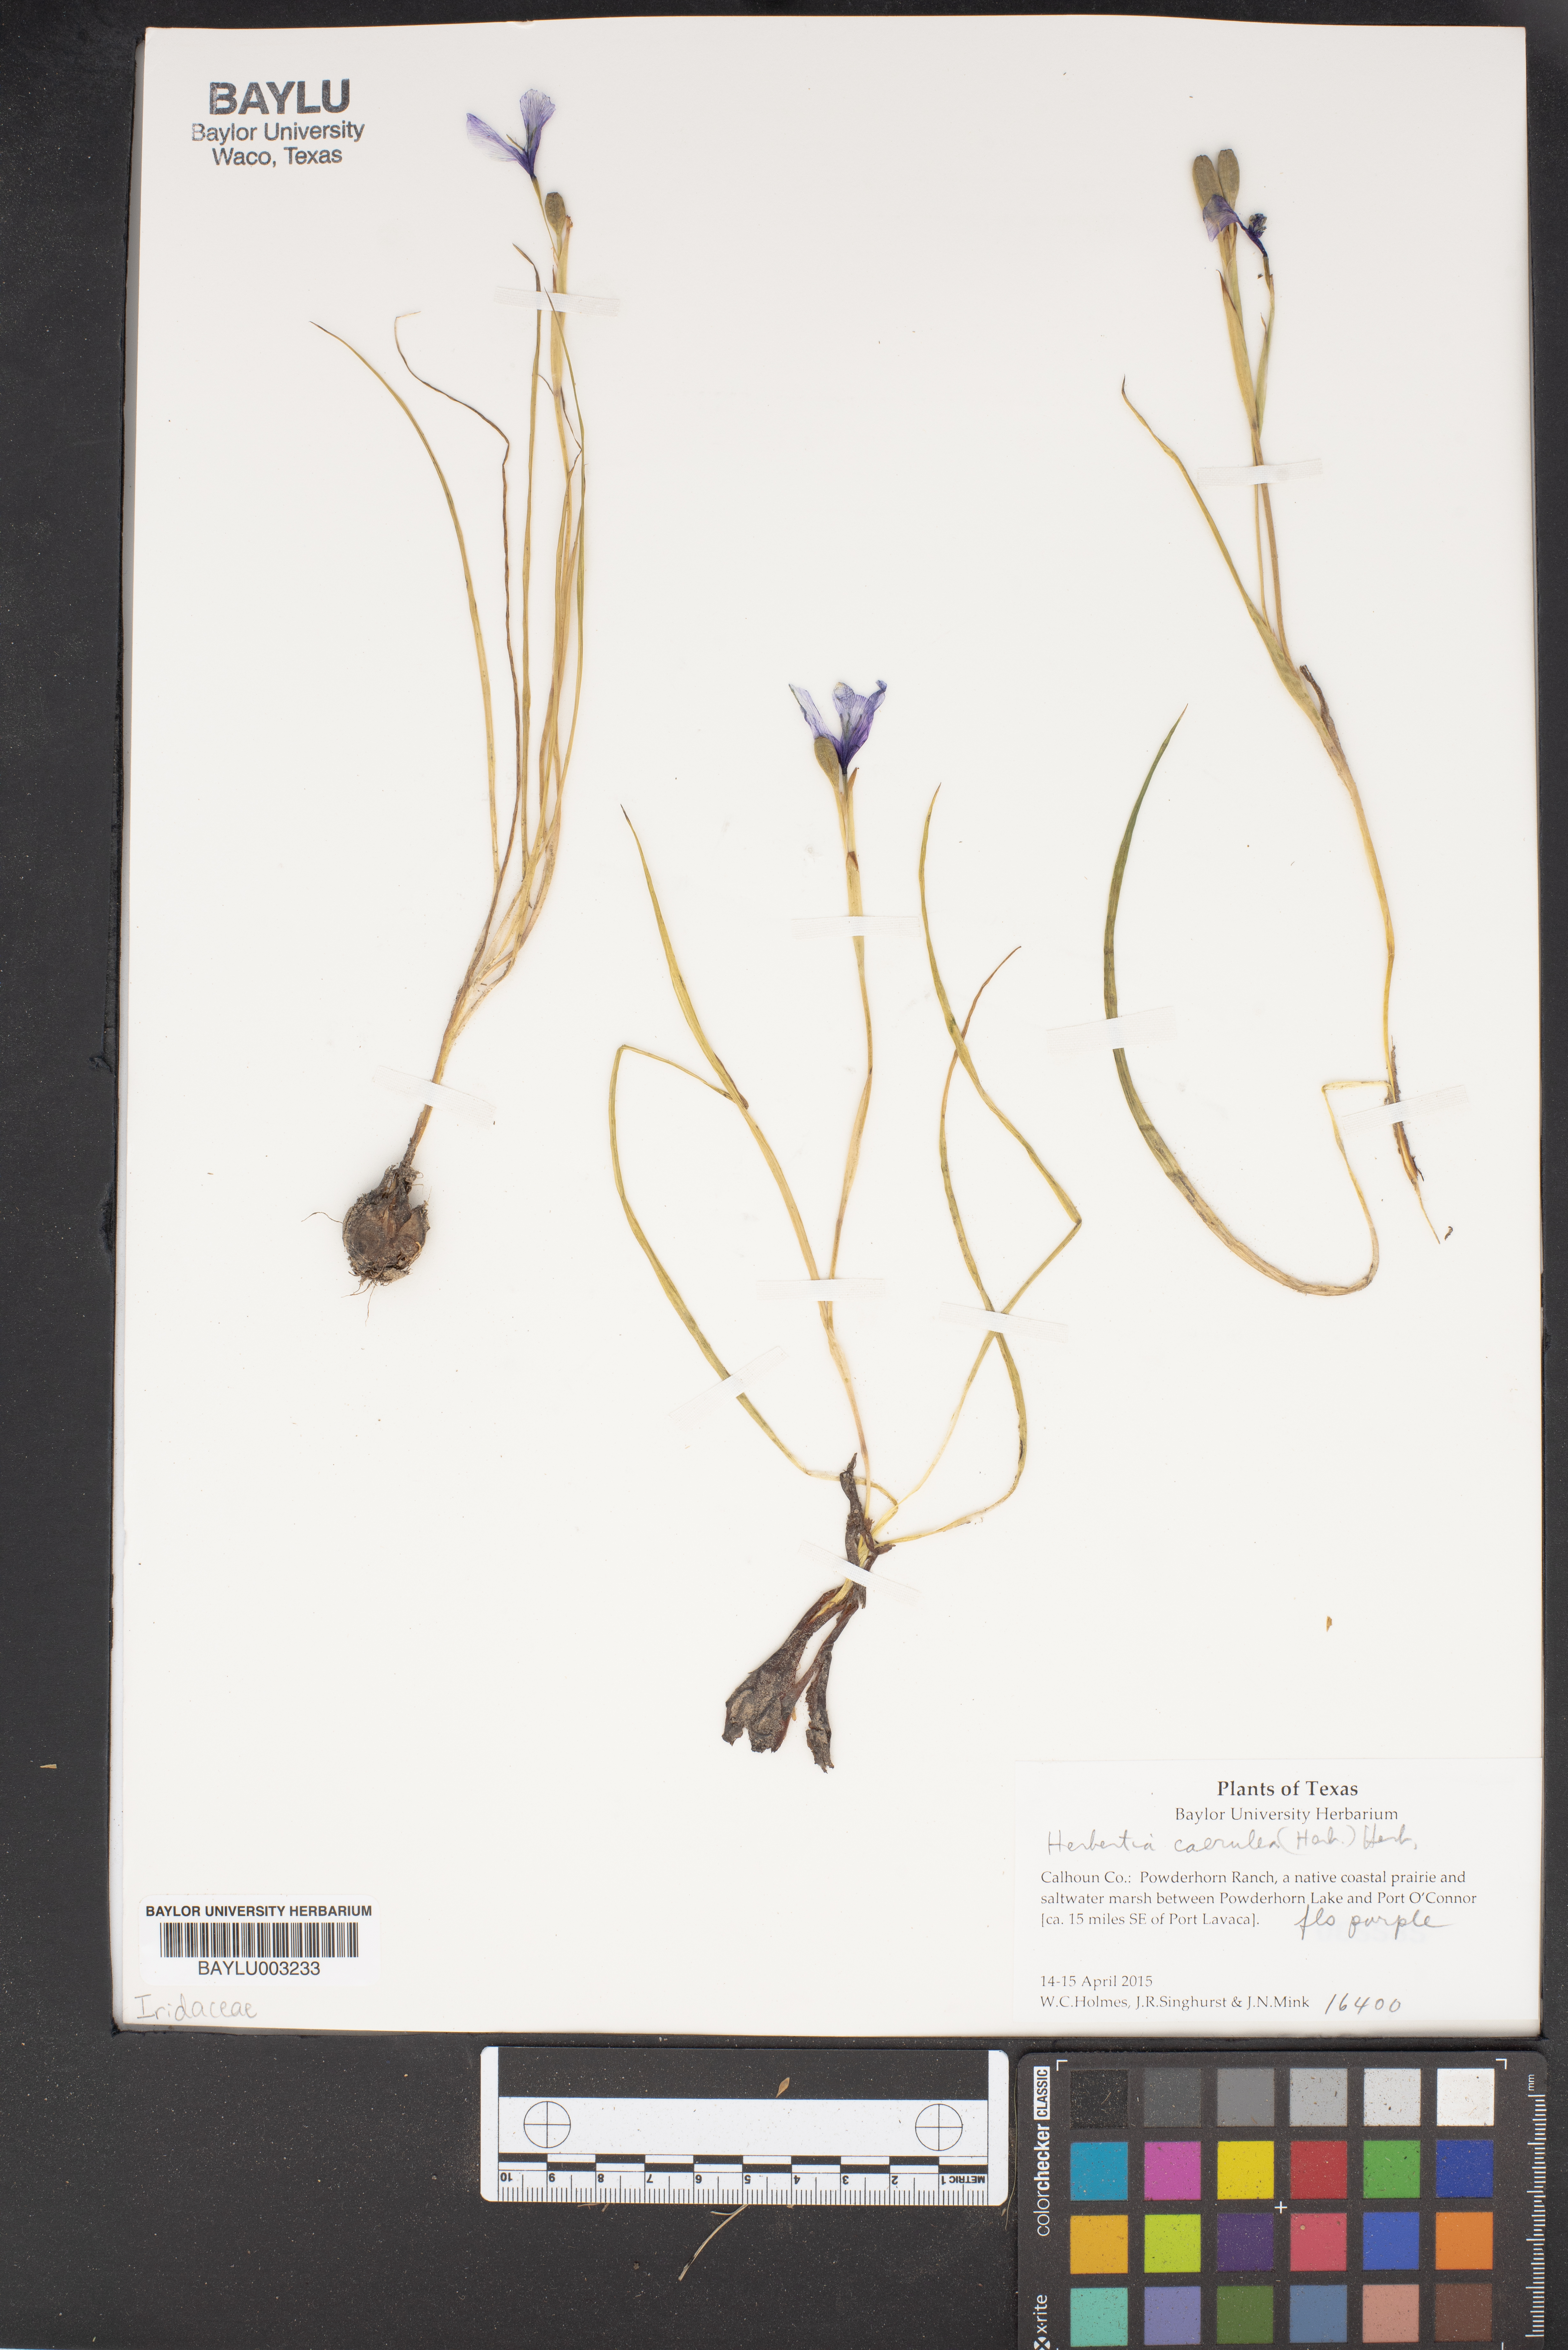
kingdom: Plantae
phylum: Tracheophyta
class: Liliopsida
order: Asparagales
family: Iridaceae
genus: Herbertia
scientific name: Herbertia lahue
